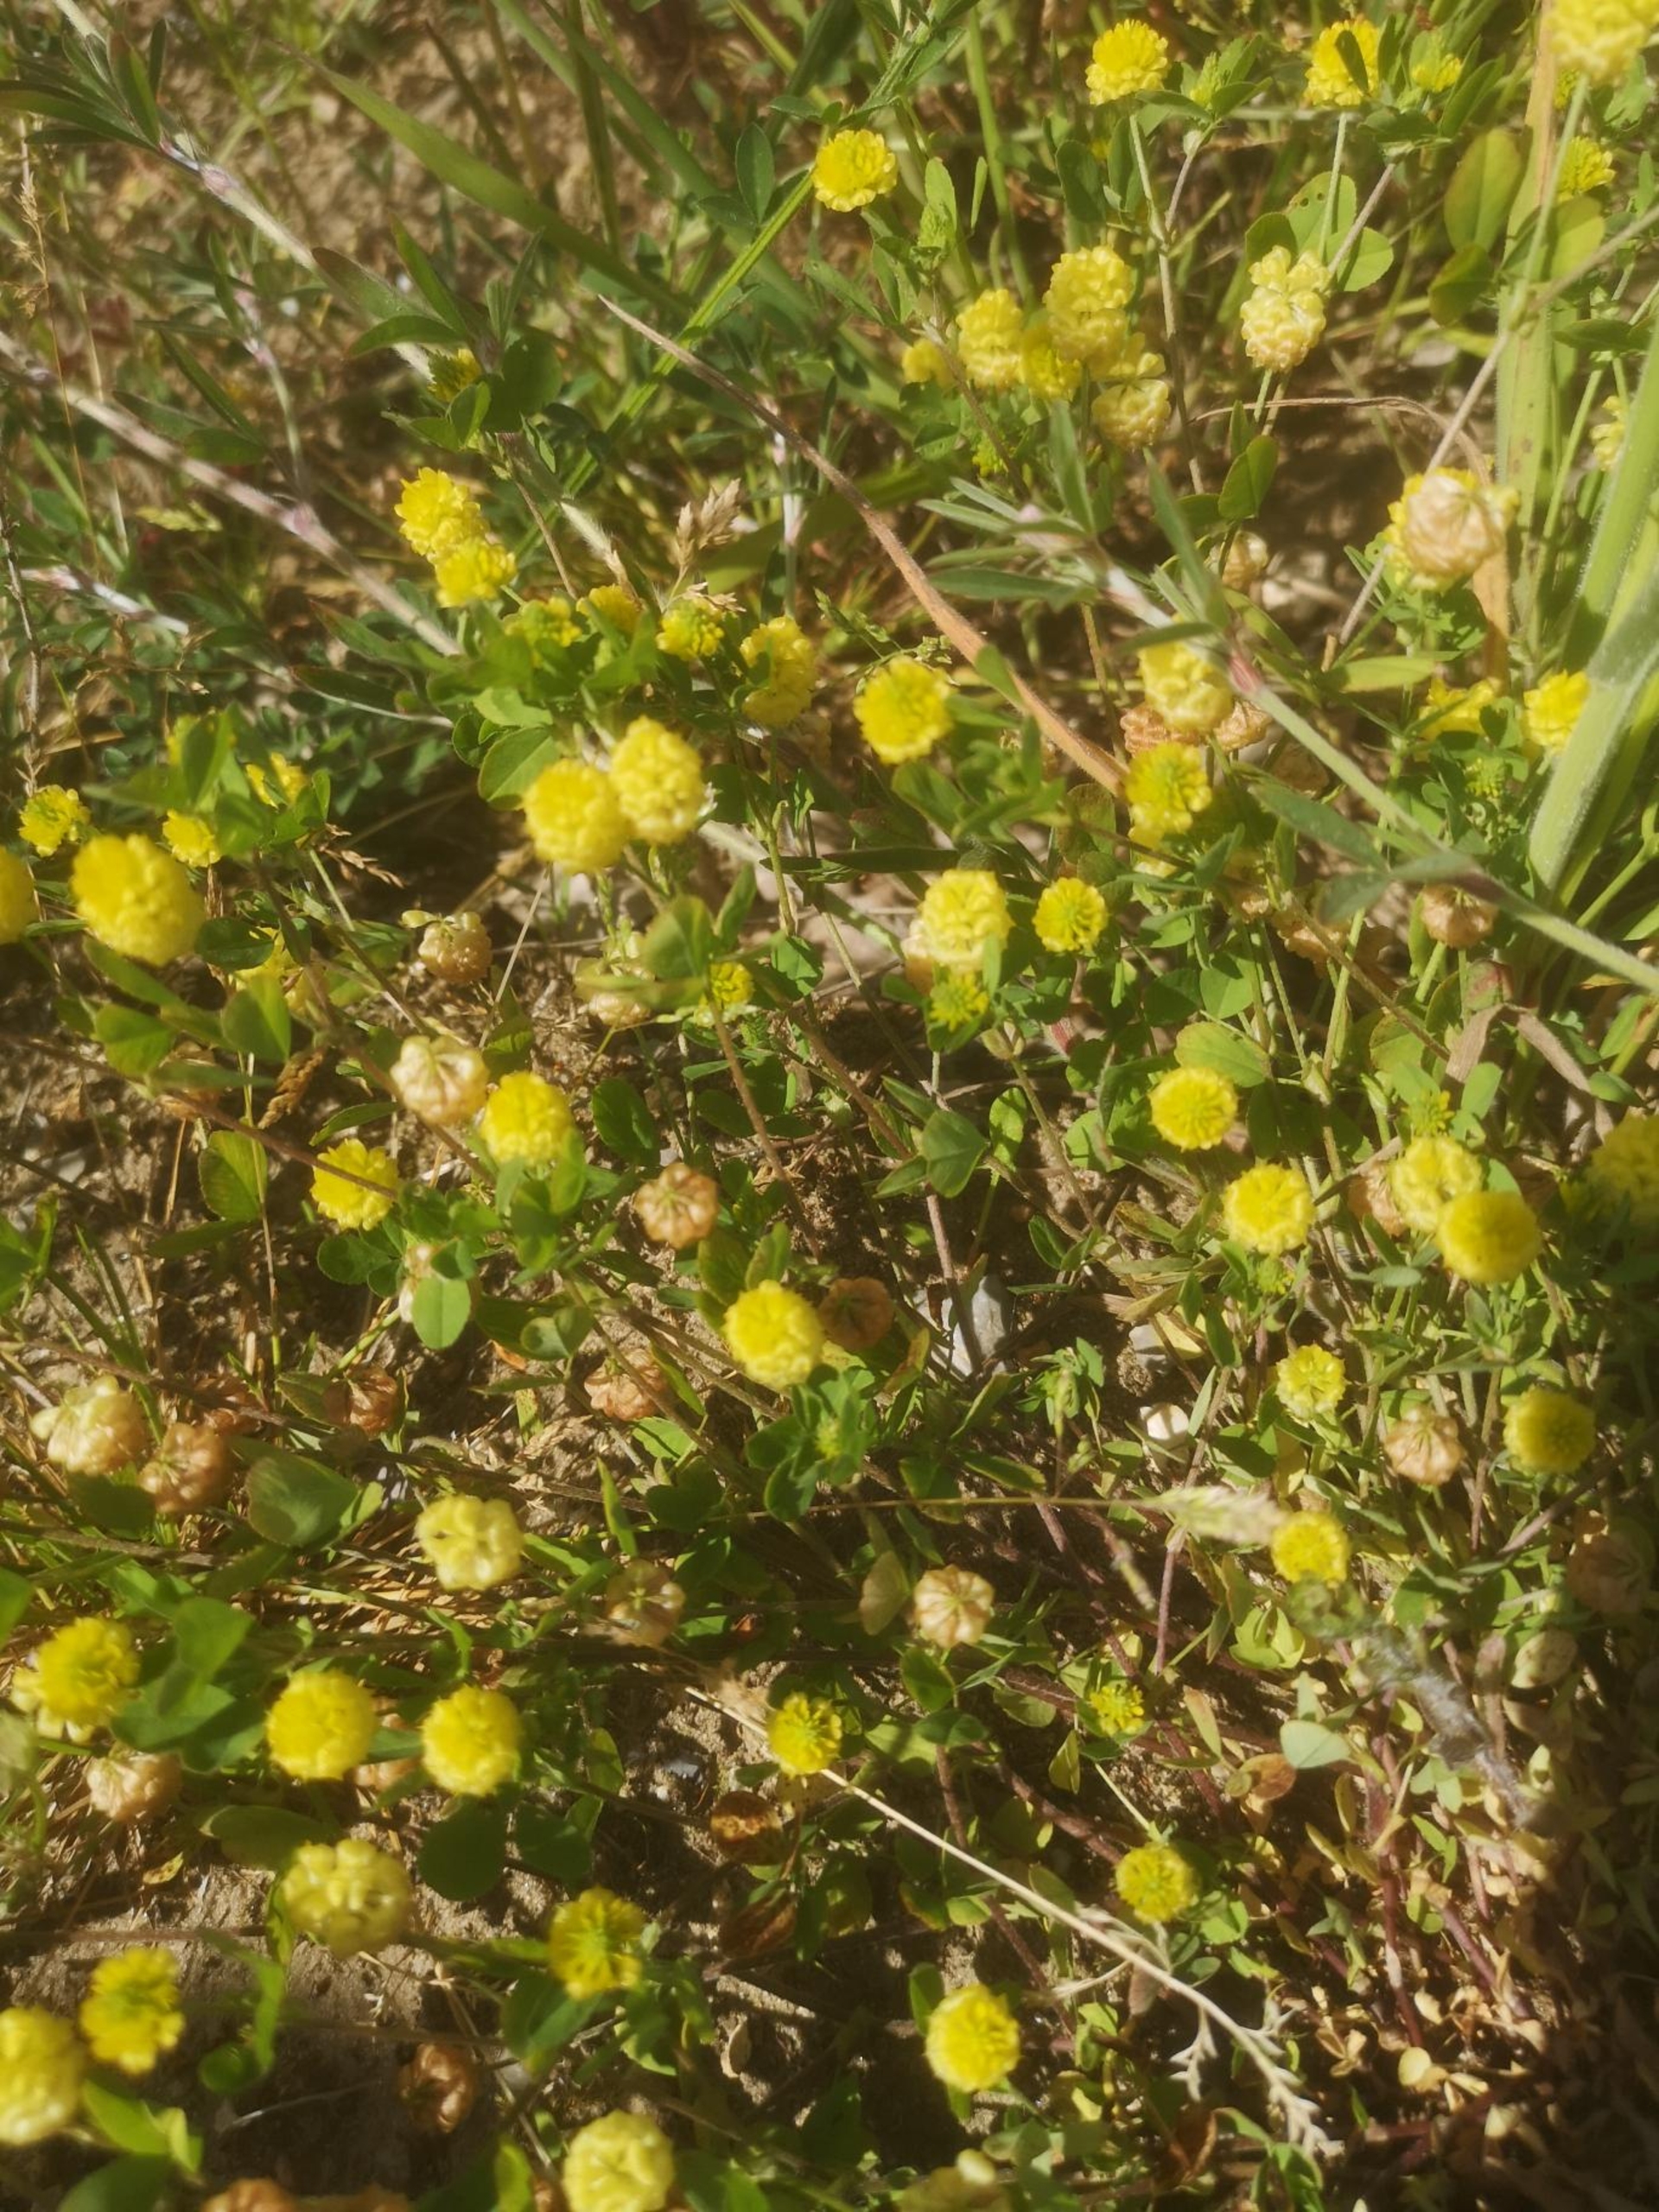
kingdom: Plantae
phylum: Tracheophyta
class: Magnoliopsida
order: Fabales
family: Fabaceae
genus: Trifolium
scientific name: Trifolium campestre
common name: Gul kløver
